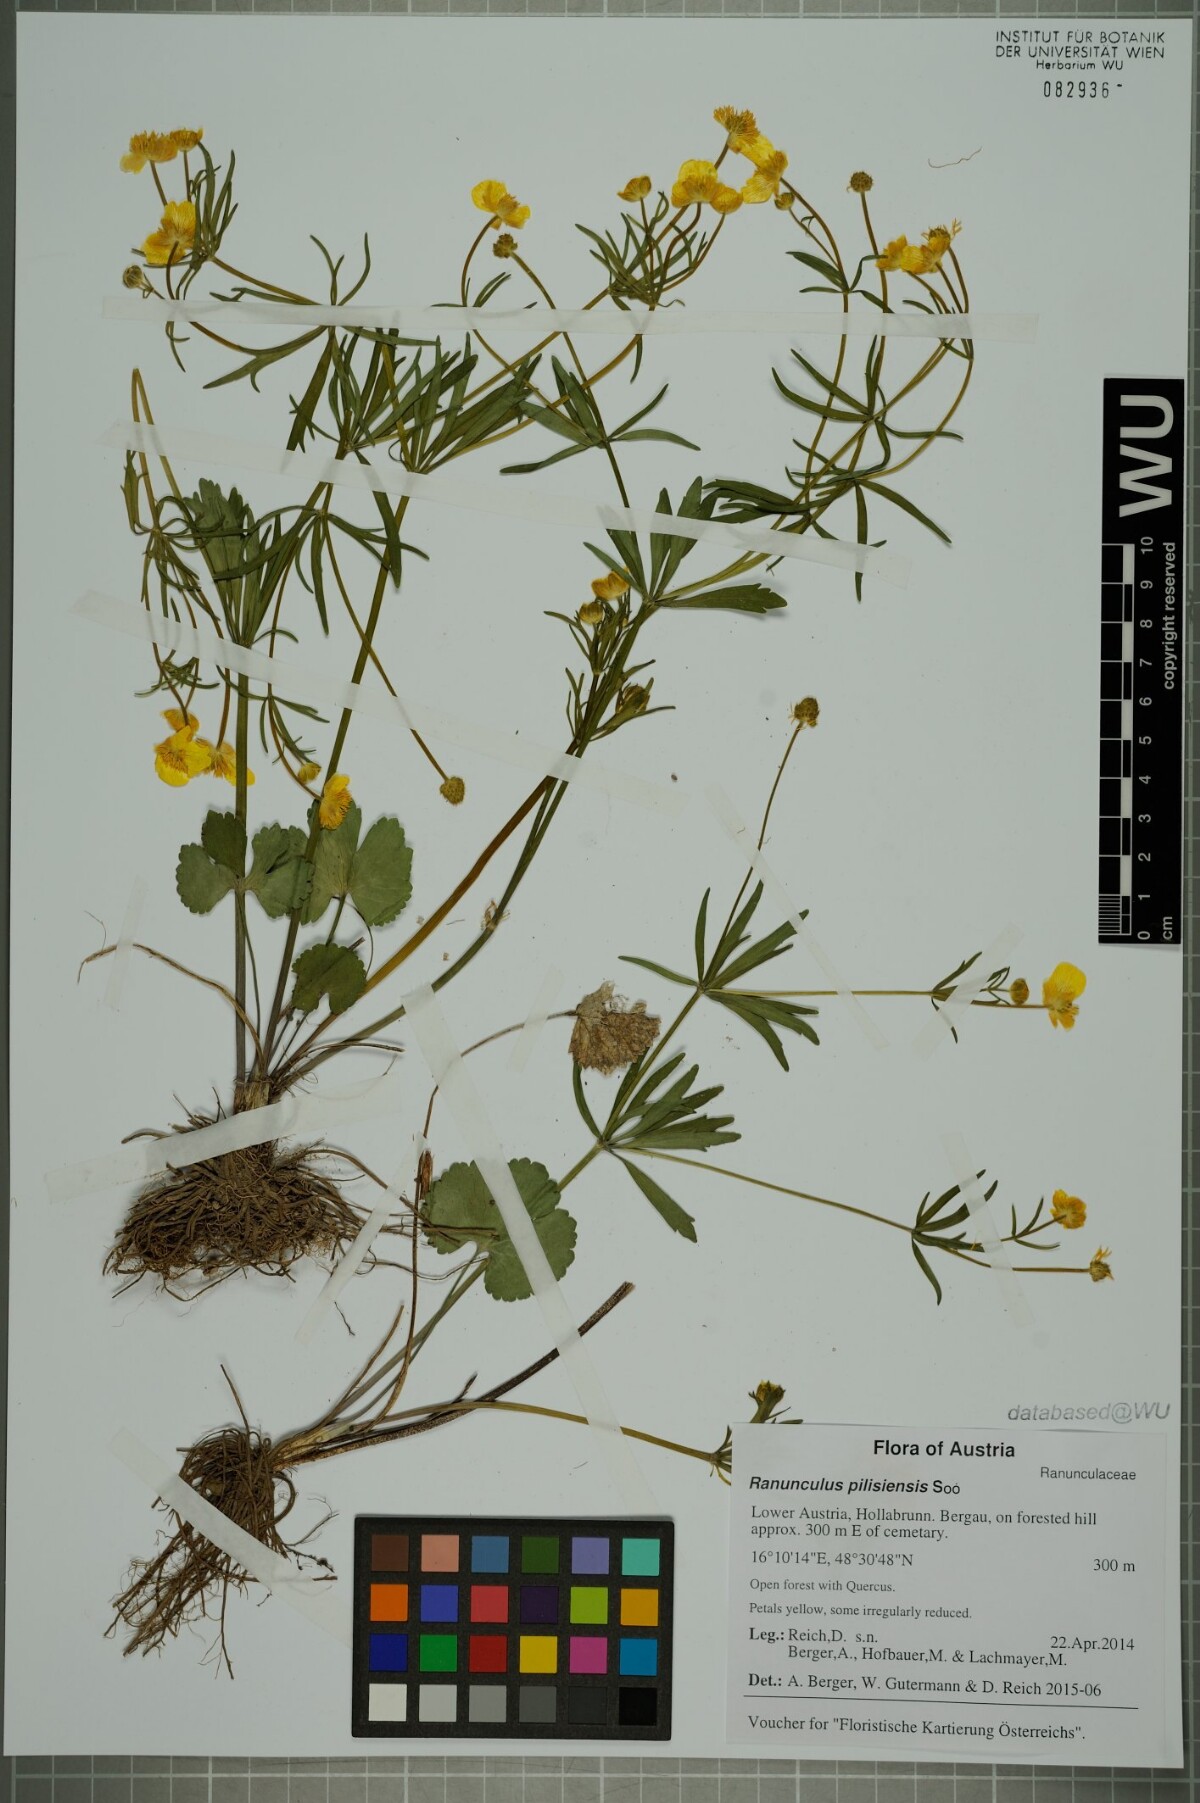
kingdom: Plantae
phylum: Tracheophyta
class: Magnoliopsida
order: Ranunculales
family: Ranunculaceae
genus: Ranunculus
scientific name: Ranunculus pilisiensis
